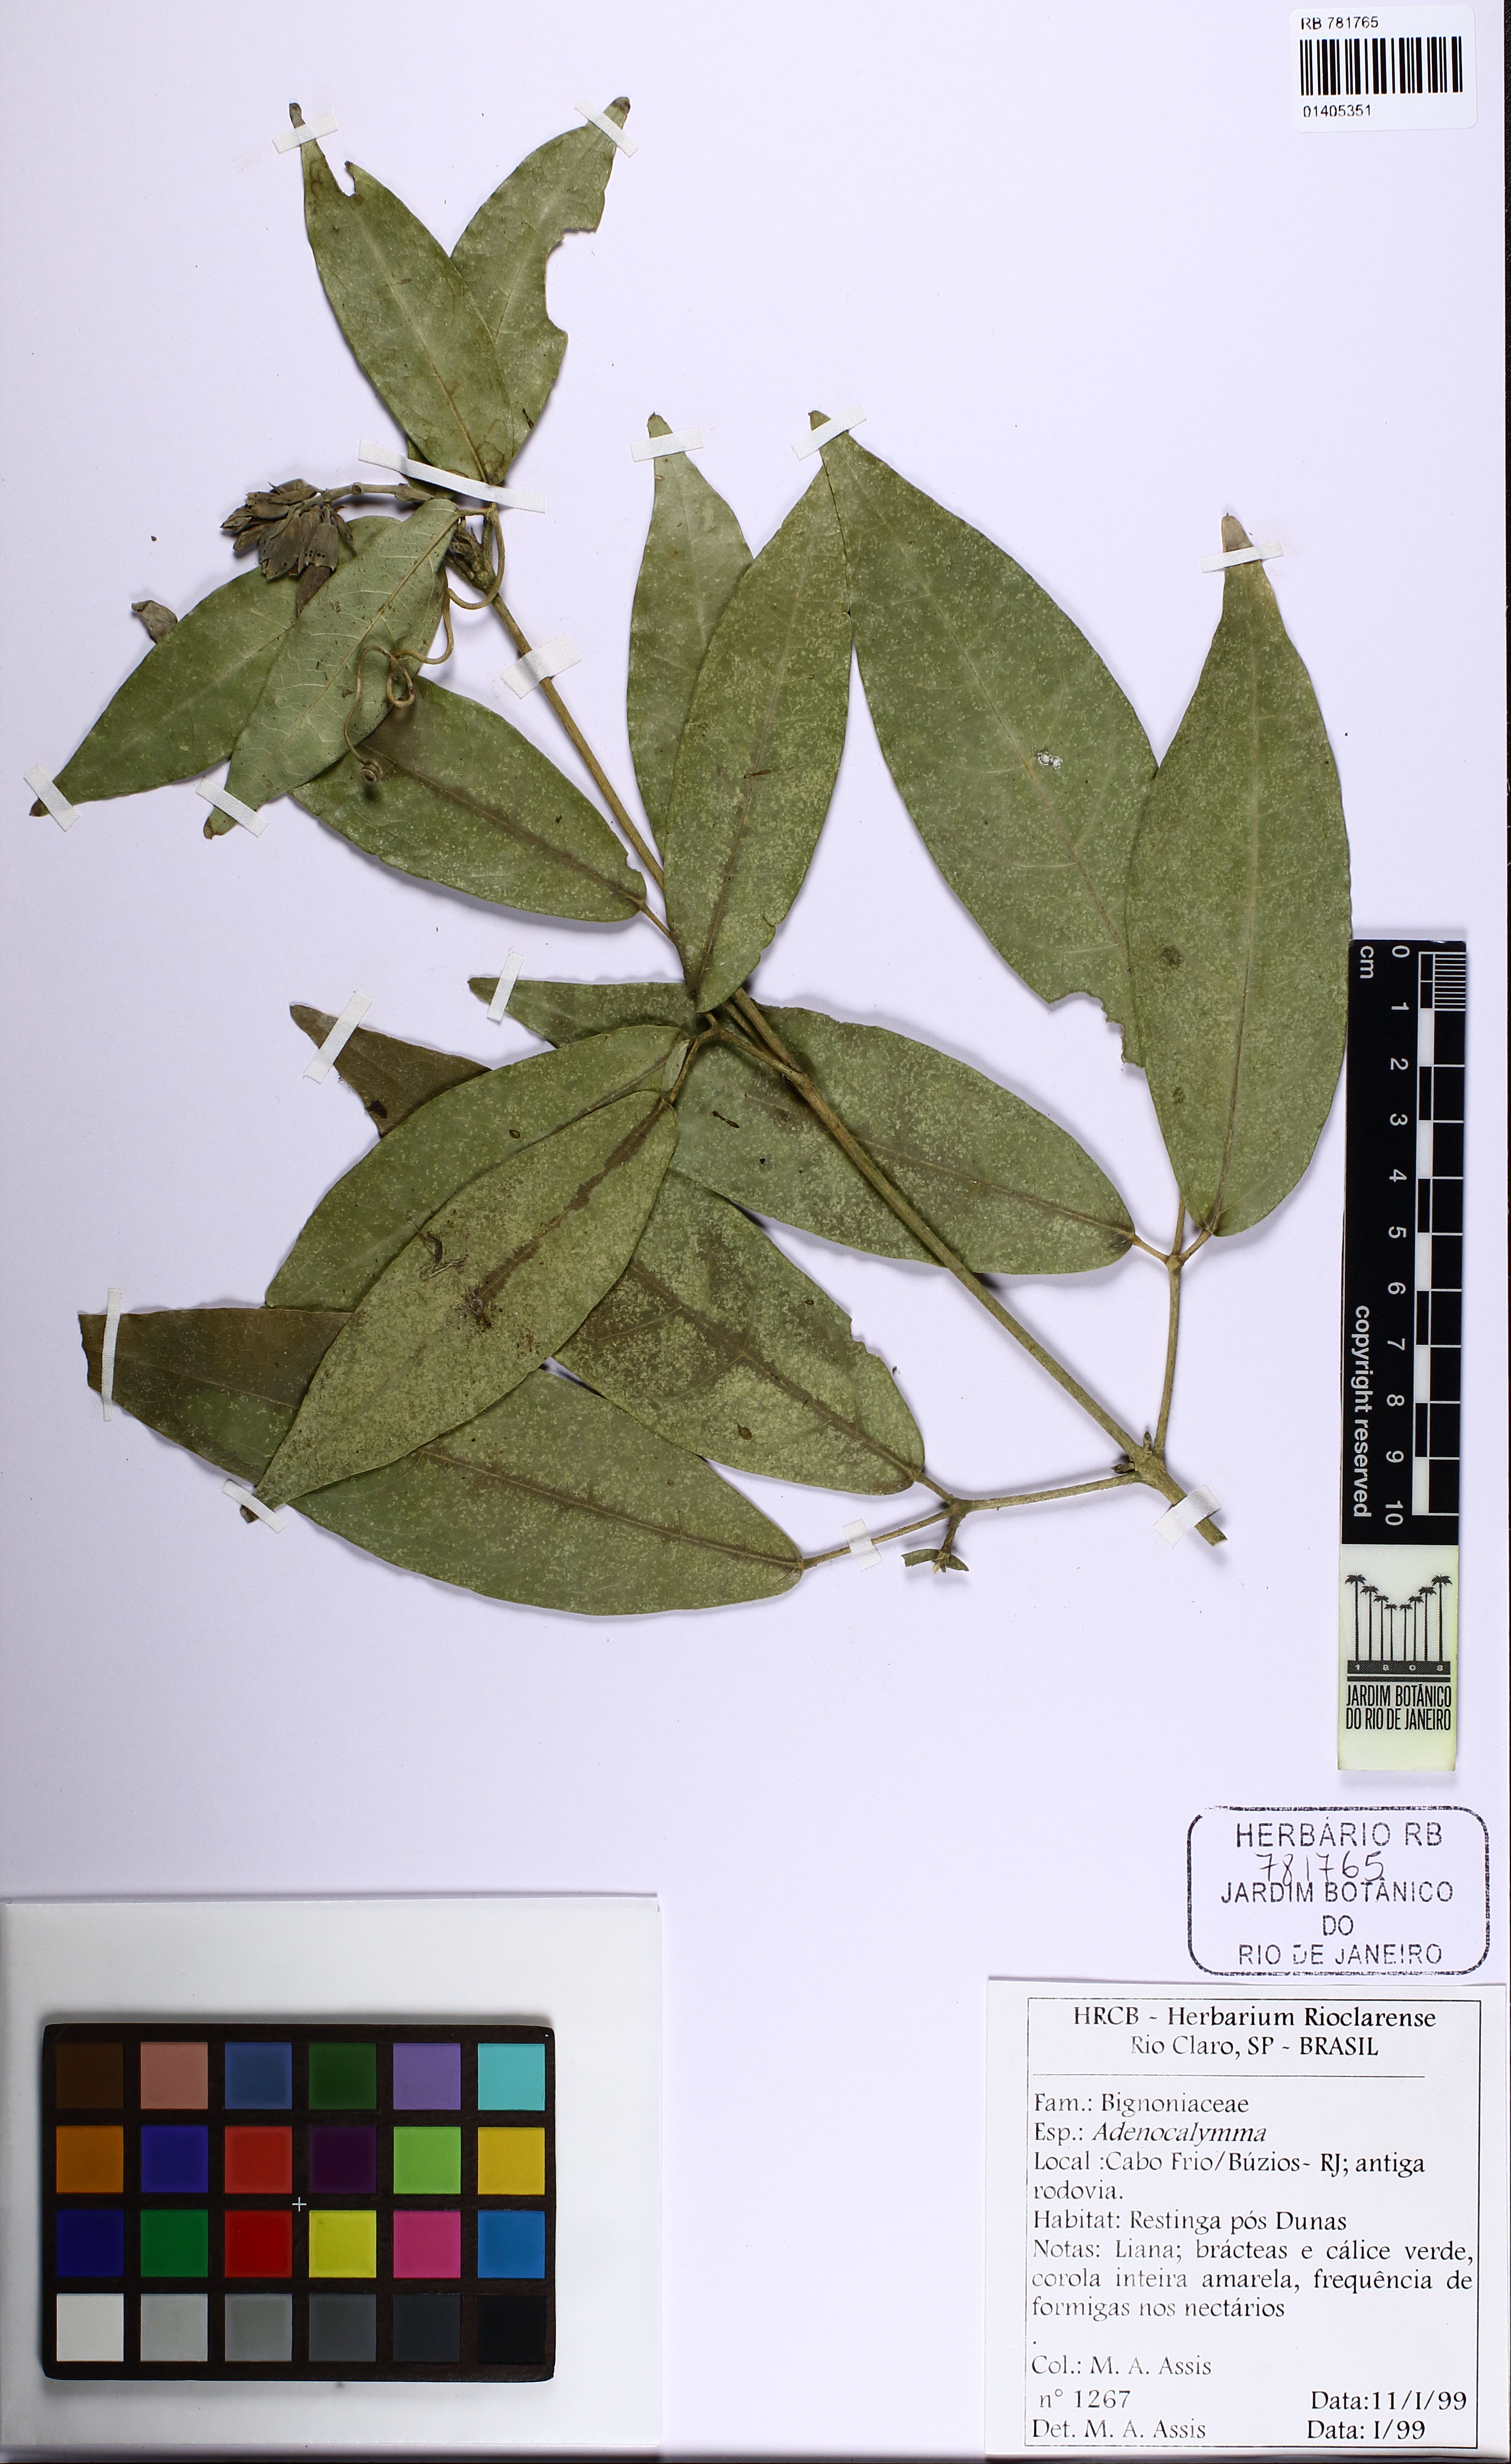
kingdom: Plantae
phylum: Tracheophyta
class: Magnoliopsida
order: Lamiales
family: Bignoniaceae
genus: Adenocalymma
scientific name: Adenocalymma trifoliatum
